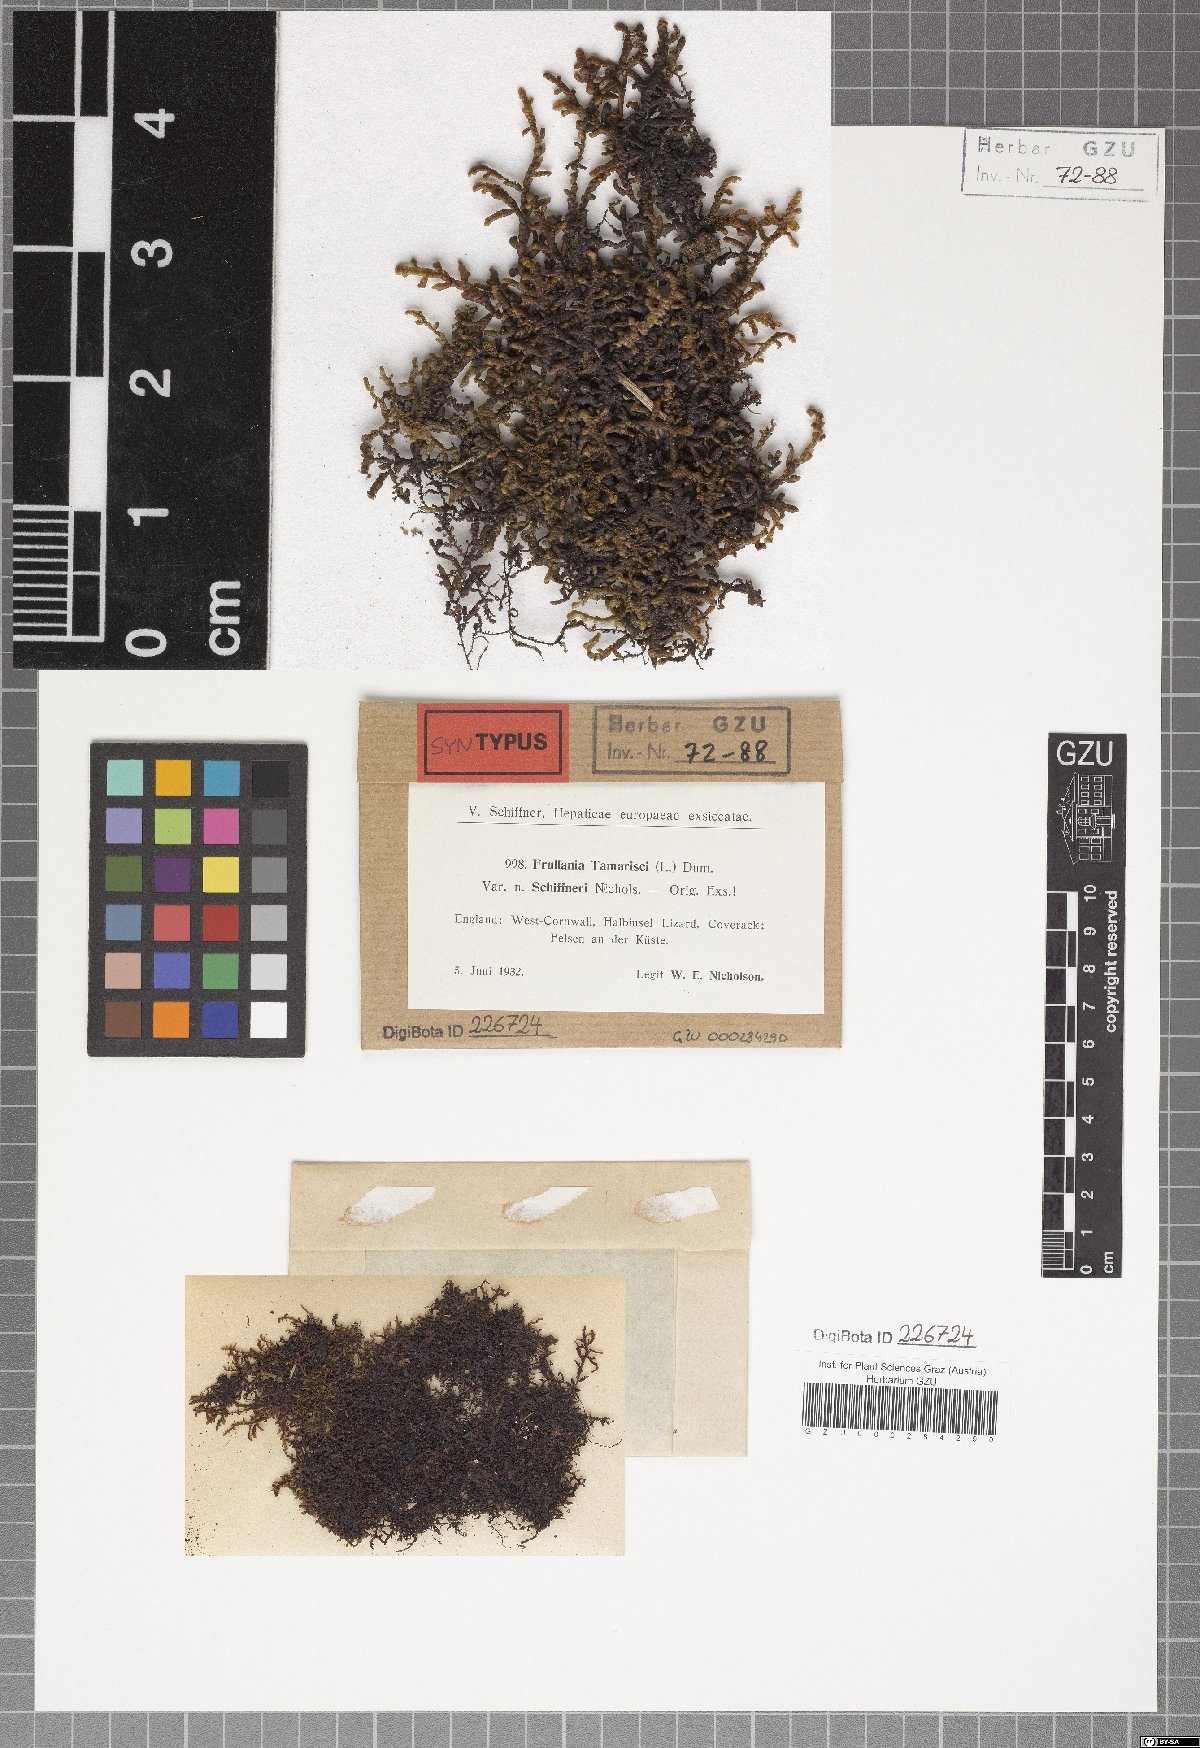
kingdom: Plantae
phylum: Marchantiophyta
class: Jungermanniopsida
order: Porellales
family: Frullaniaceae
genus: Frullania
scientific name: Frullania tamarisci
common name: Tamarisk scalewort
